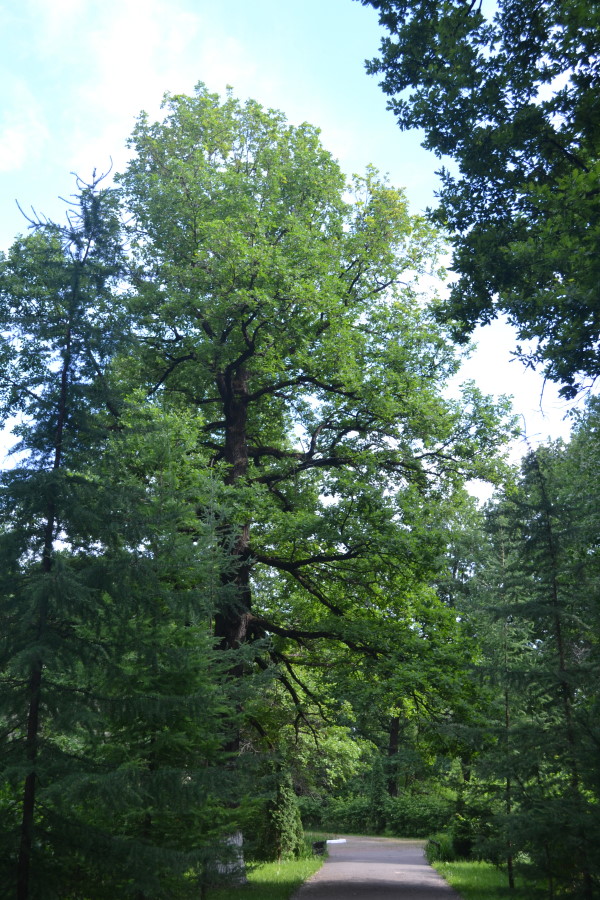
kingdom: Plantae
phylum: Tracheophyta
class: Magnoliopsida
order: Fagales
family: Fagaceae
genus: Quercus
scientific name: Quercus robur
